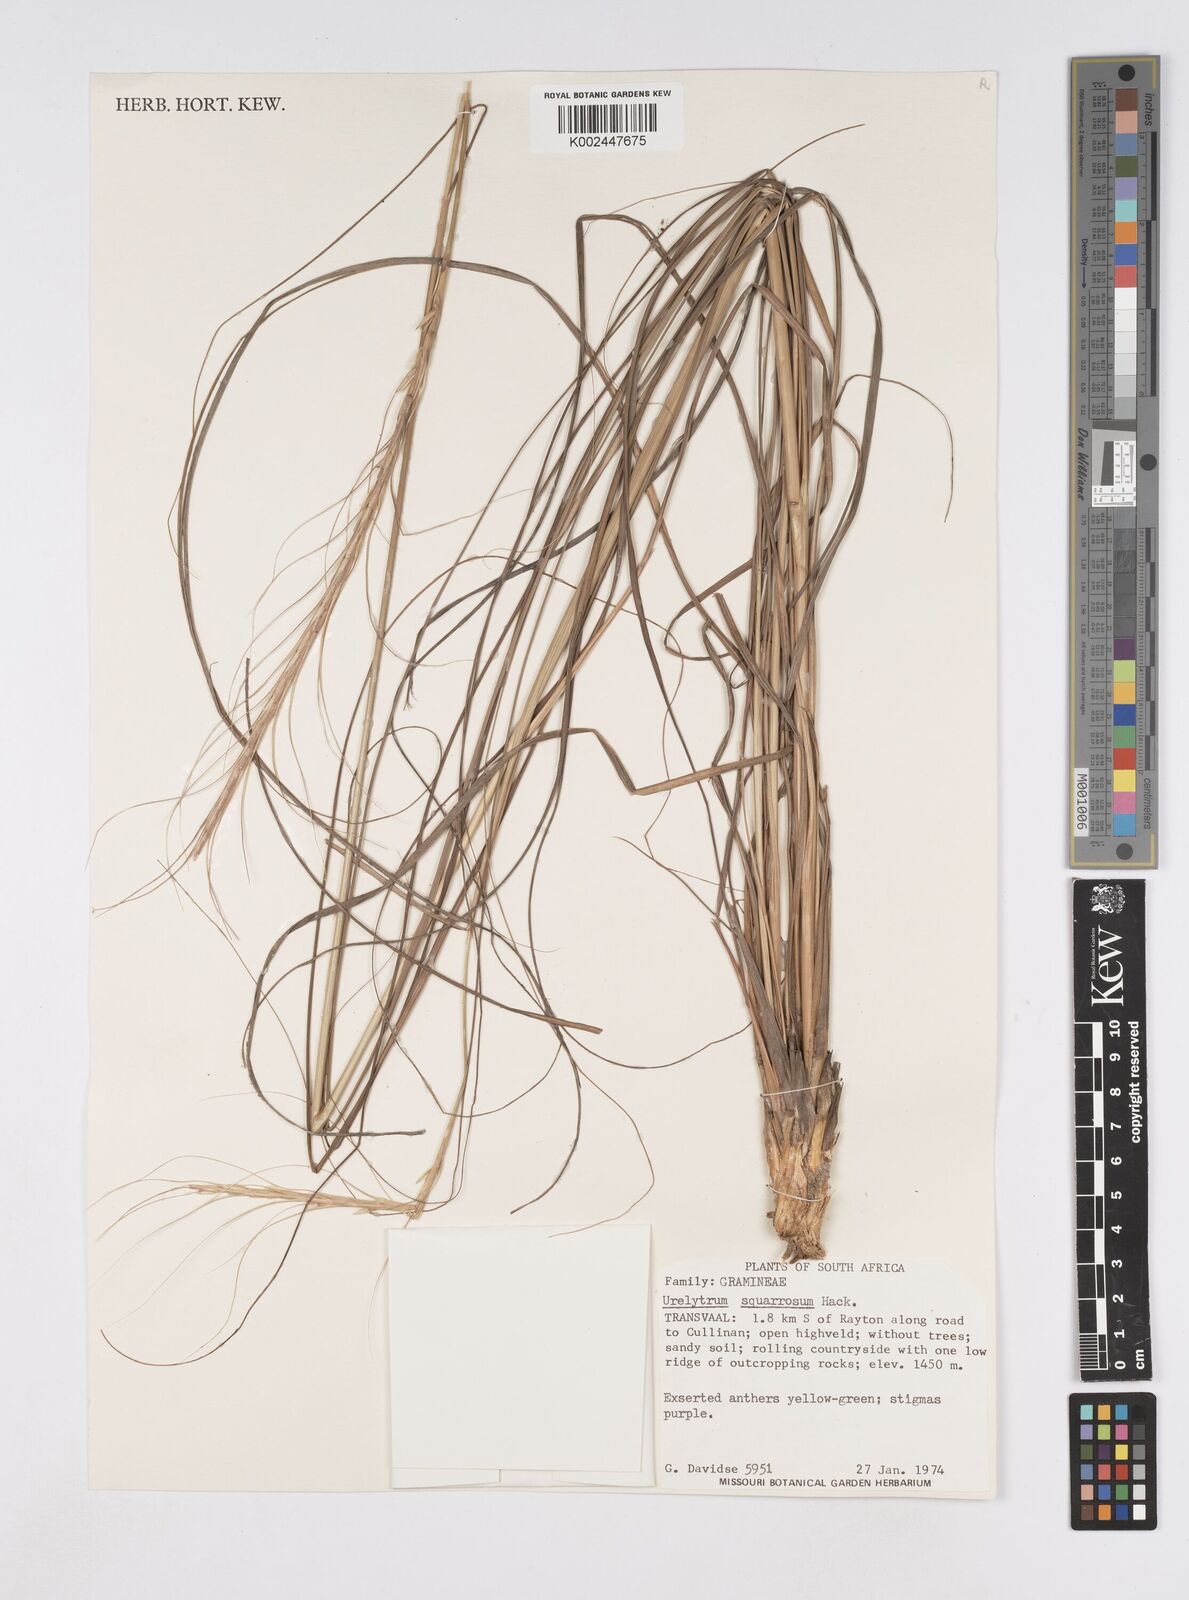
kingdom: Plantae
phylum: Tracheophyta
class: Liliopsida
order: Poales
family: Poaceae
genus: Urelytrum
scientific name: Urelytrum agropyroides
